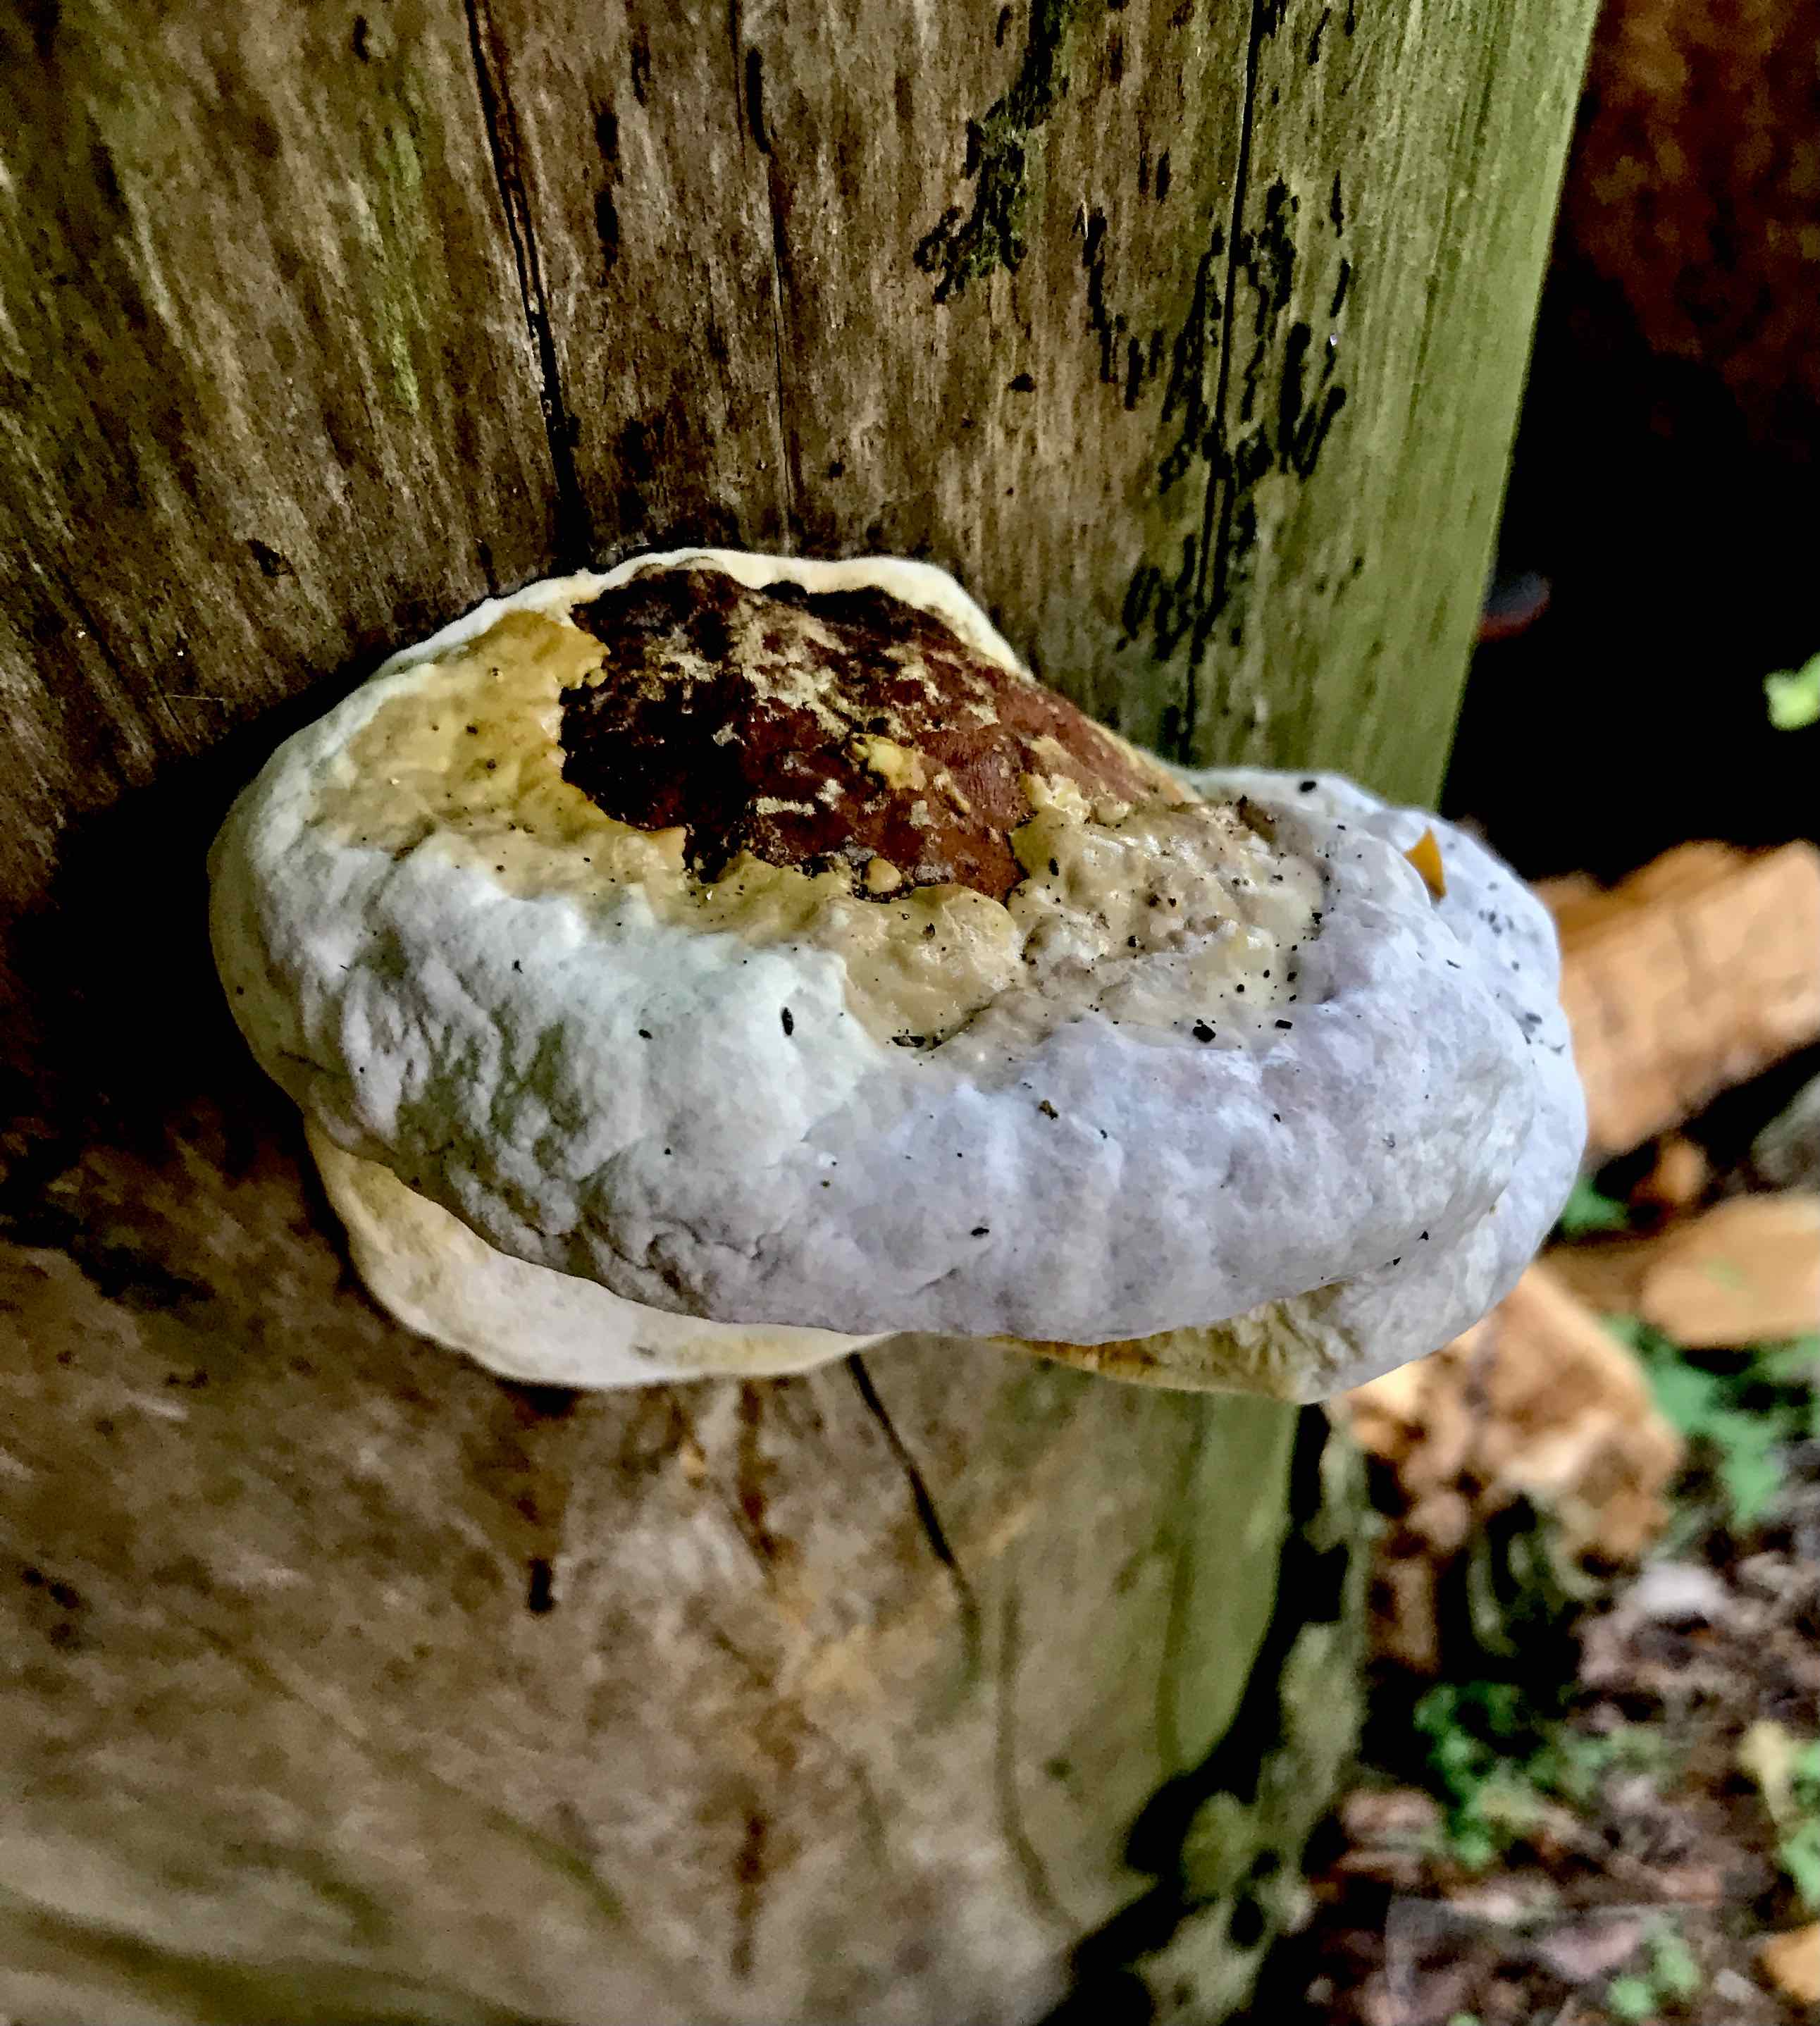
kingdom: Fungi
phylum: Basidiomycota
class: Agaricomycetes
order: Polyporales
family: Fomitopsidaceae
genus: Fomitopsis
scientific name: Fomitopsis pinicola
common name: randbæltet hovporesvamp
